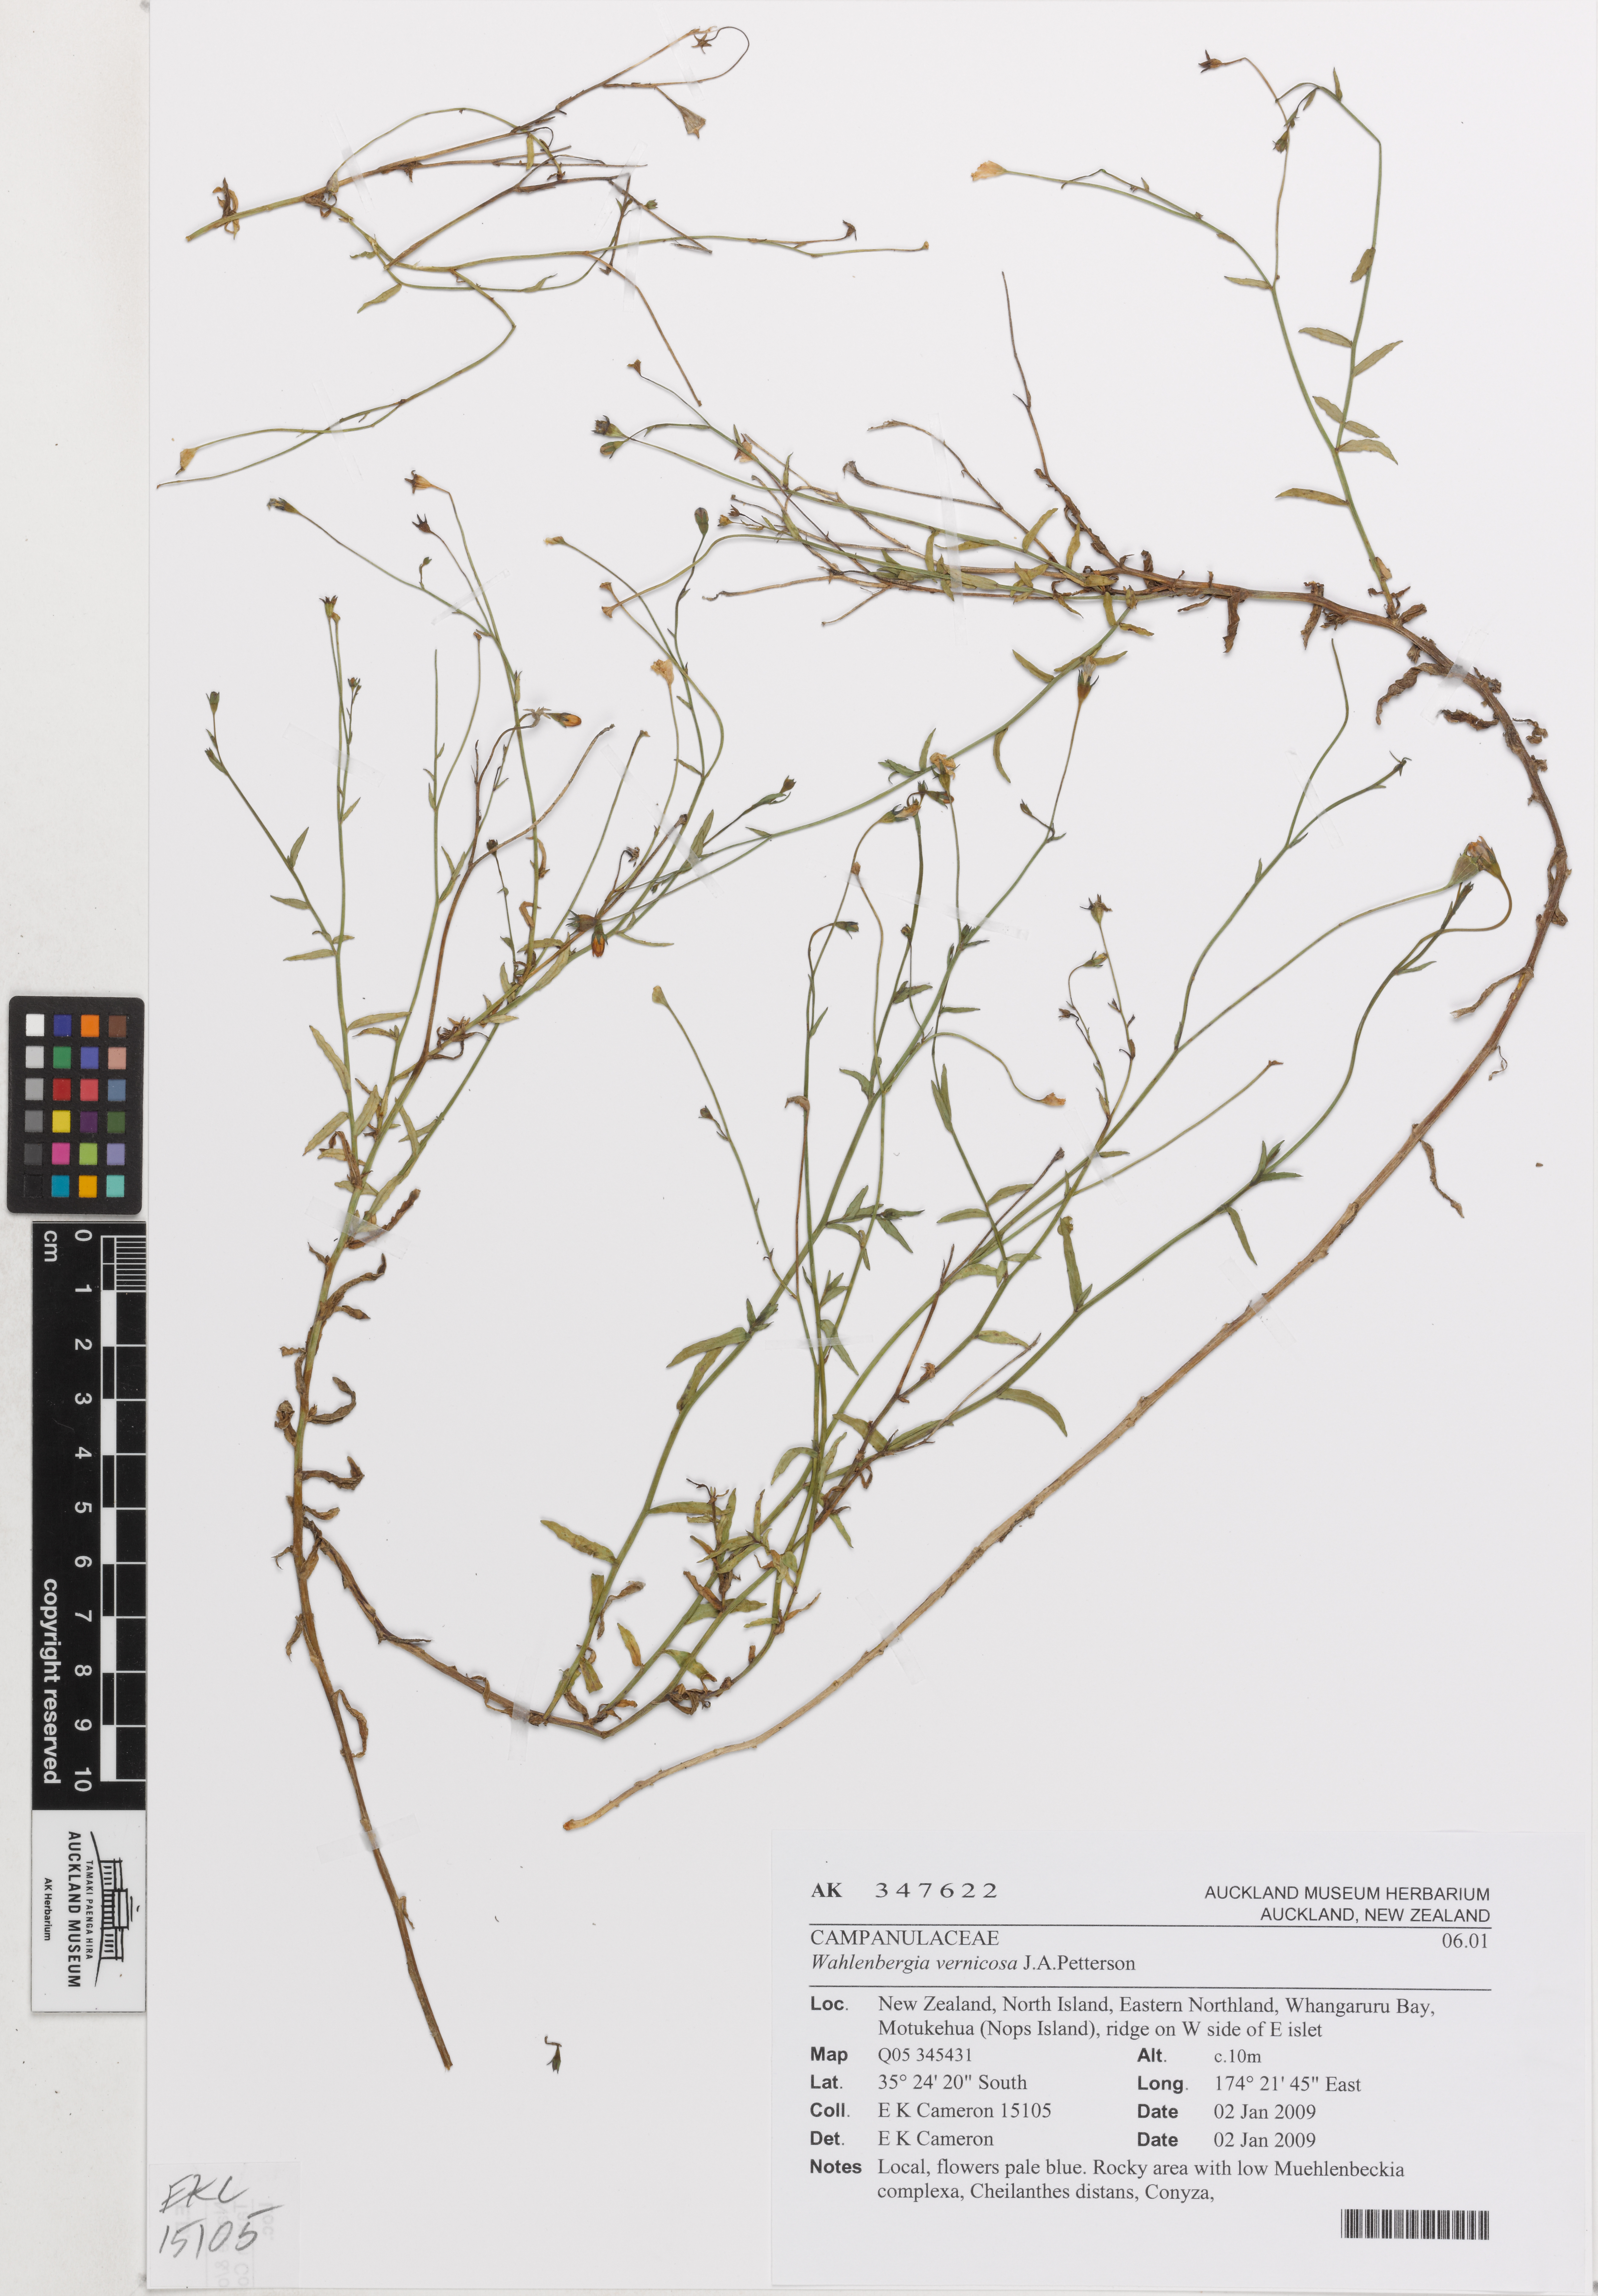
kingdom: Plantae
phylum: Tracheophyta
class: Magnoliopsida
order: Asterales
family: Campanulaceae
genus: Wahlenbergia
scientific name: Wahlenbergia vernicosa
